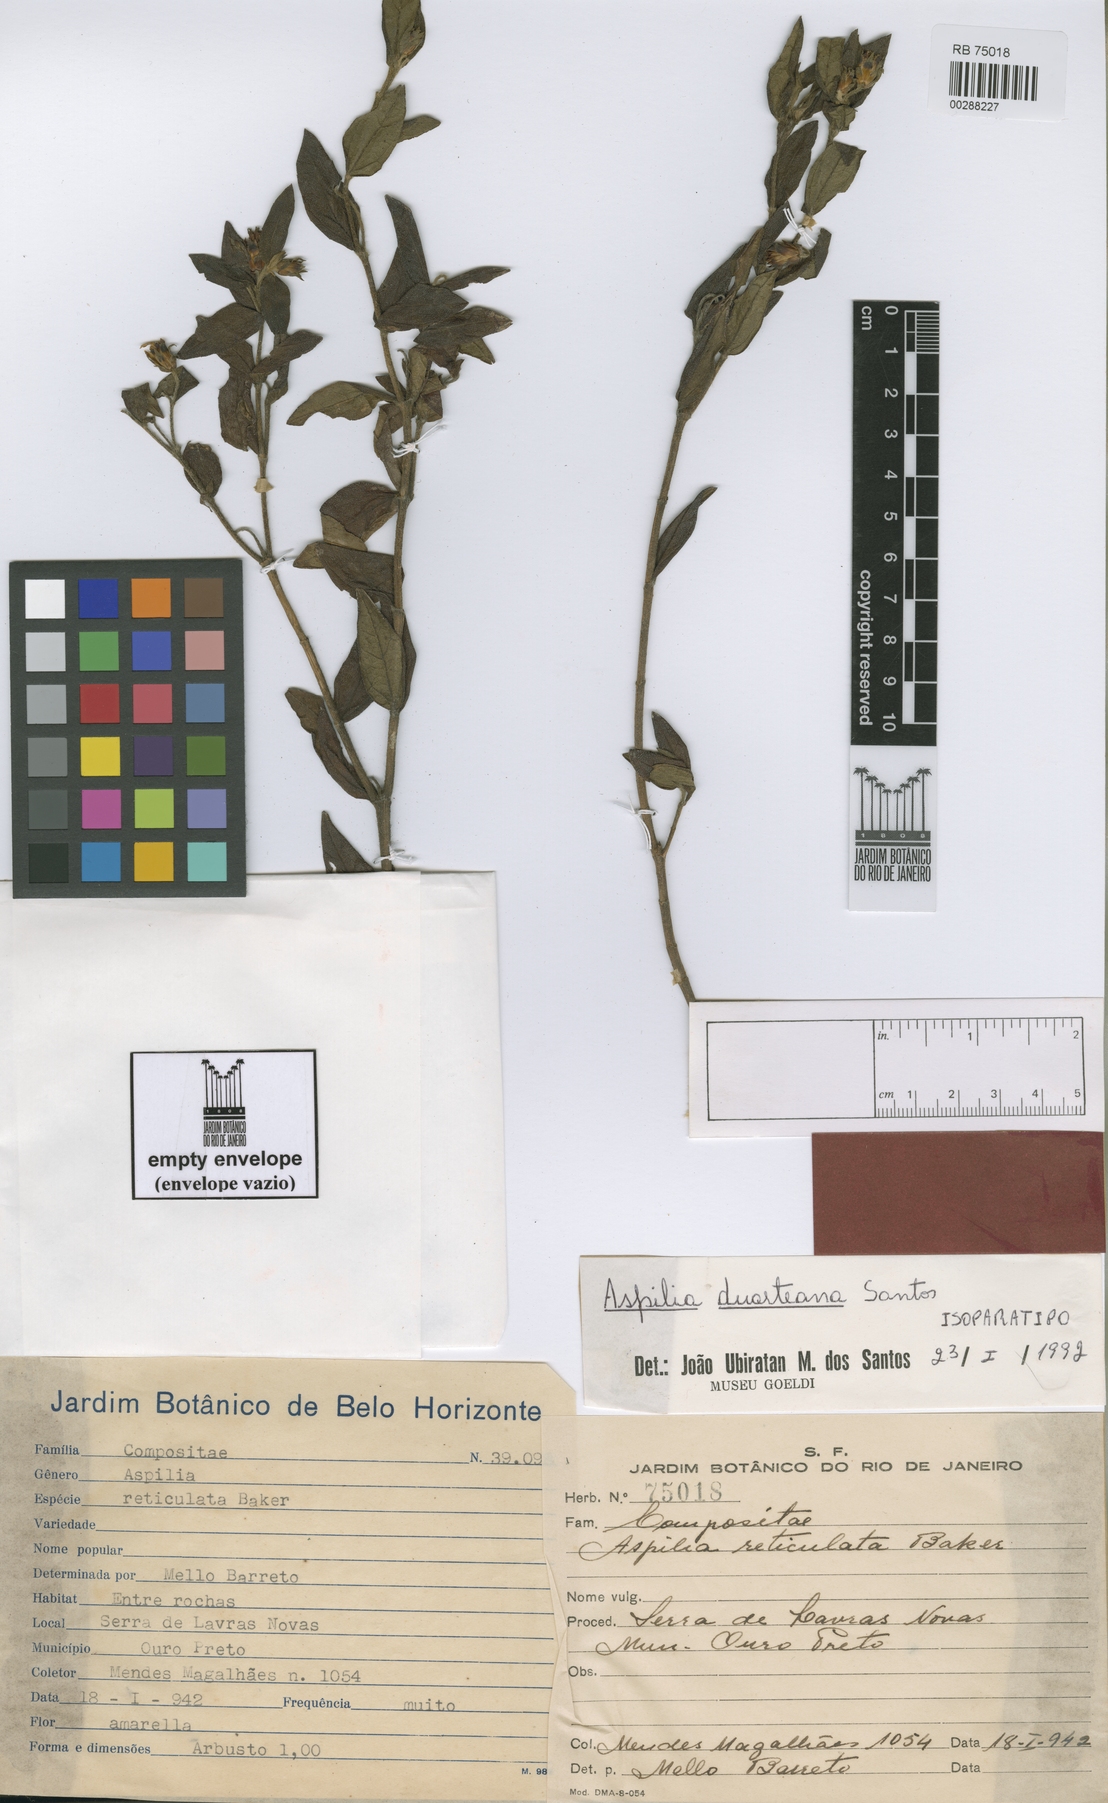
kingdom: Plantae
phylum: Tracheophyta
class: Magnoliopsida
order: Asterales
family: Asteraceae
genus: Aspilia
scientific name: Aspilia duarteana
